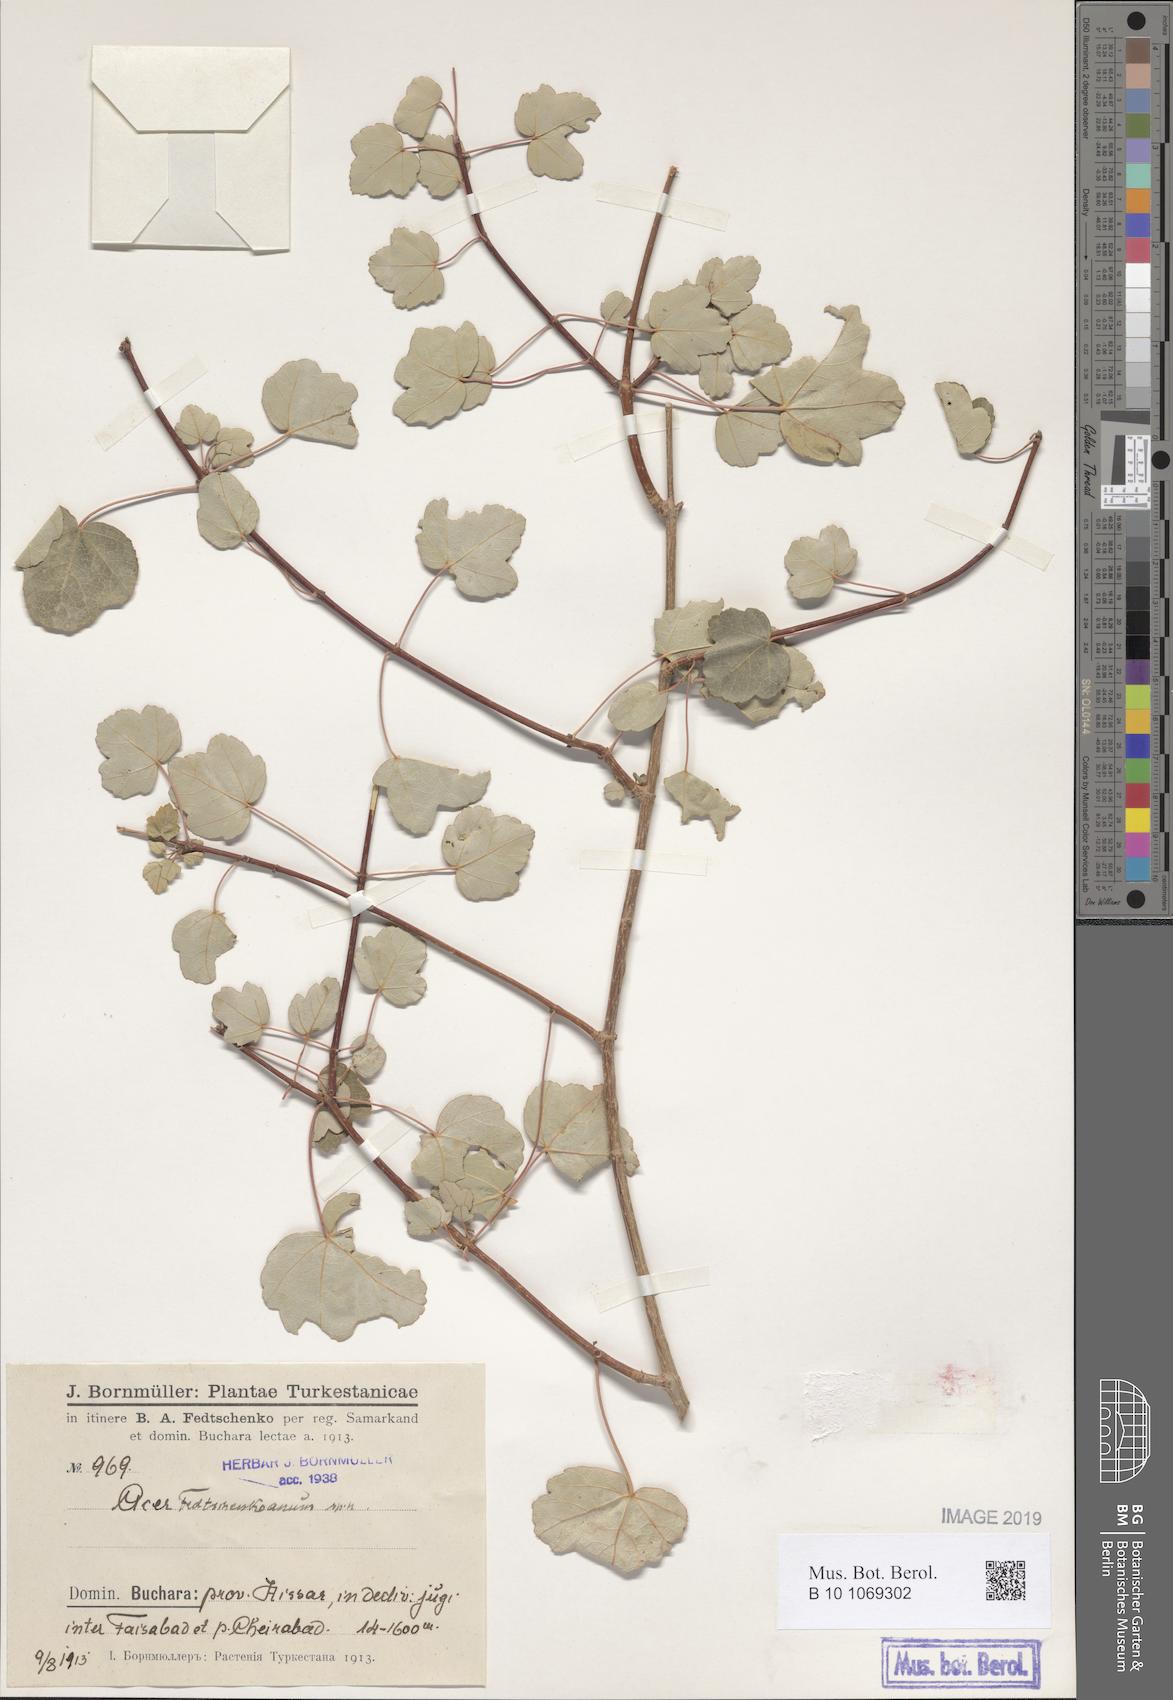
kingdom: Plantae
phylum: Tracheophyta
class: Magnoliopsida
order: Sapindales
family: Sapindaceae
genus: Acer
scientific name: Acer pentapomicum
